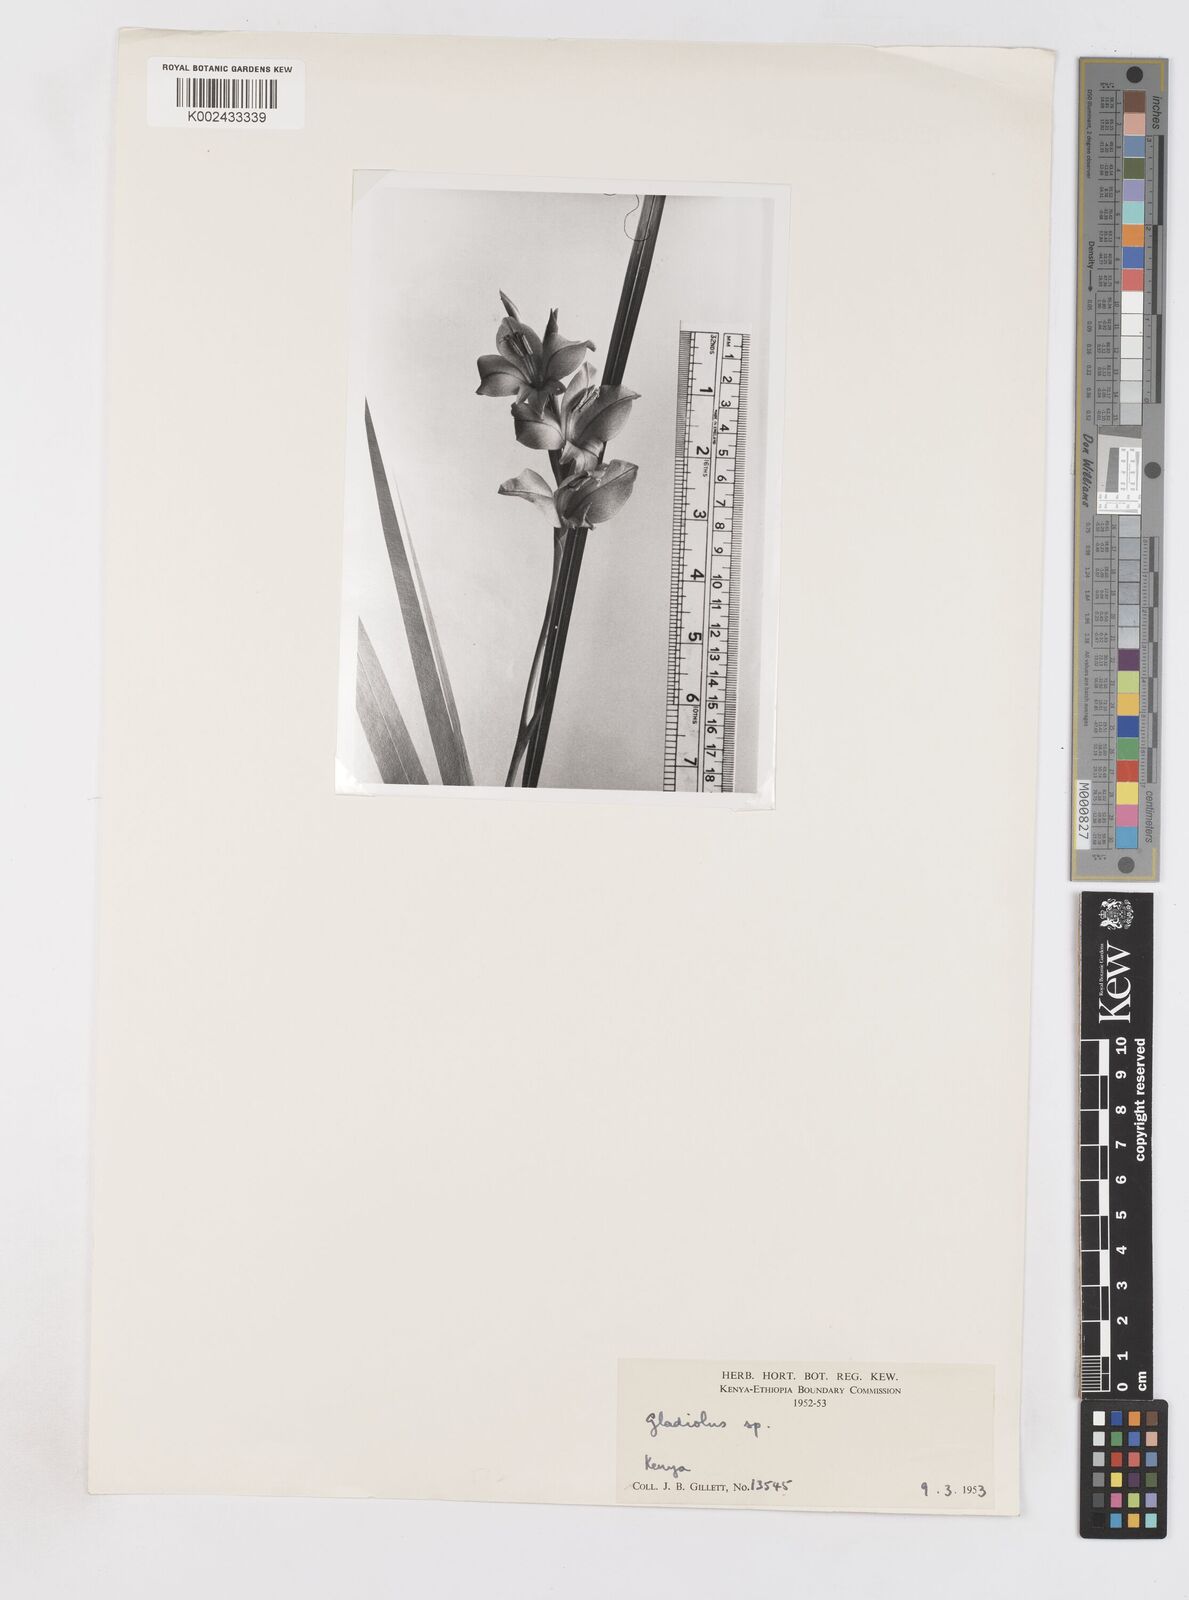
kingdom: Plantae
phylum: Tracheophyta
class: Liliopsida
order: Asparagales
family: Iridaceae
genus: Gladiolus
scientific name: Gladiolus dalenii
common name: Cornflag
